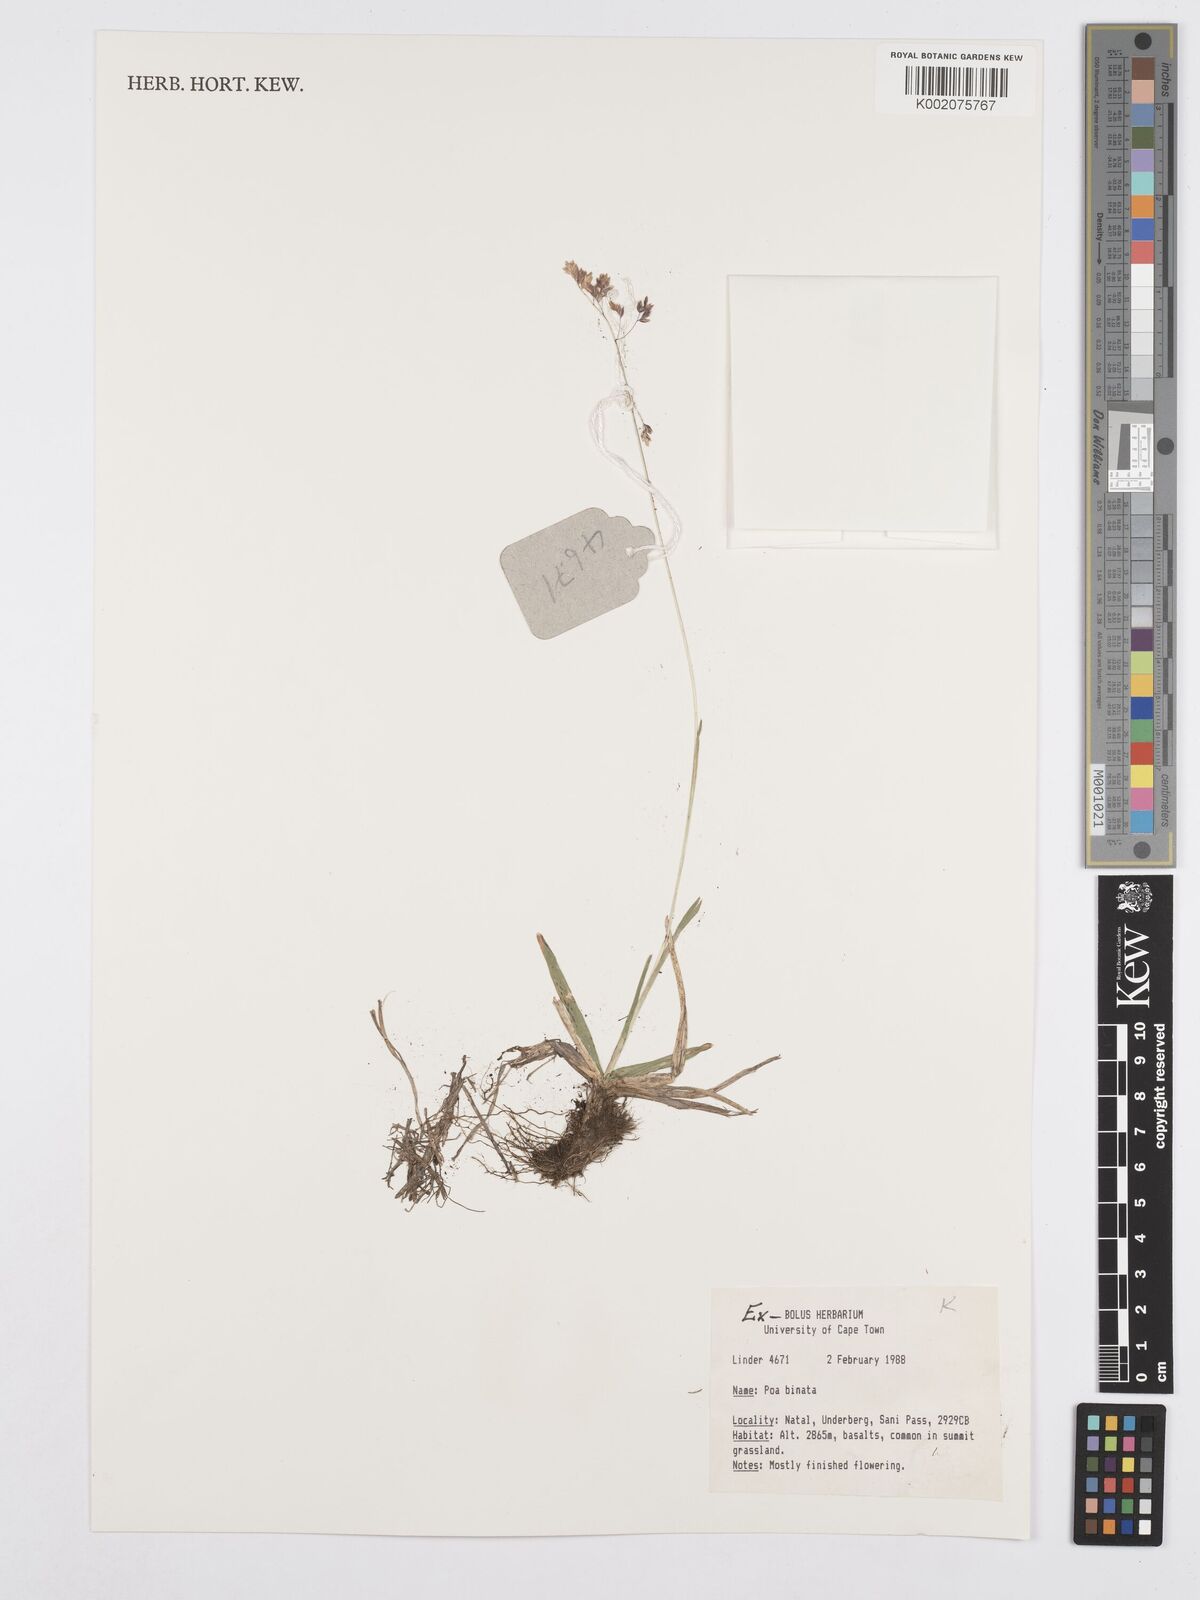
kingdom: Plantae
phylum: Tracheophyta
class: Liliopsida
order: Poales
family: Poaceae
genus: Poa
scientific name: Poa binata
